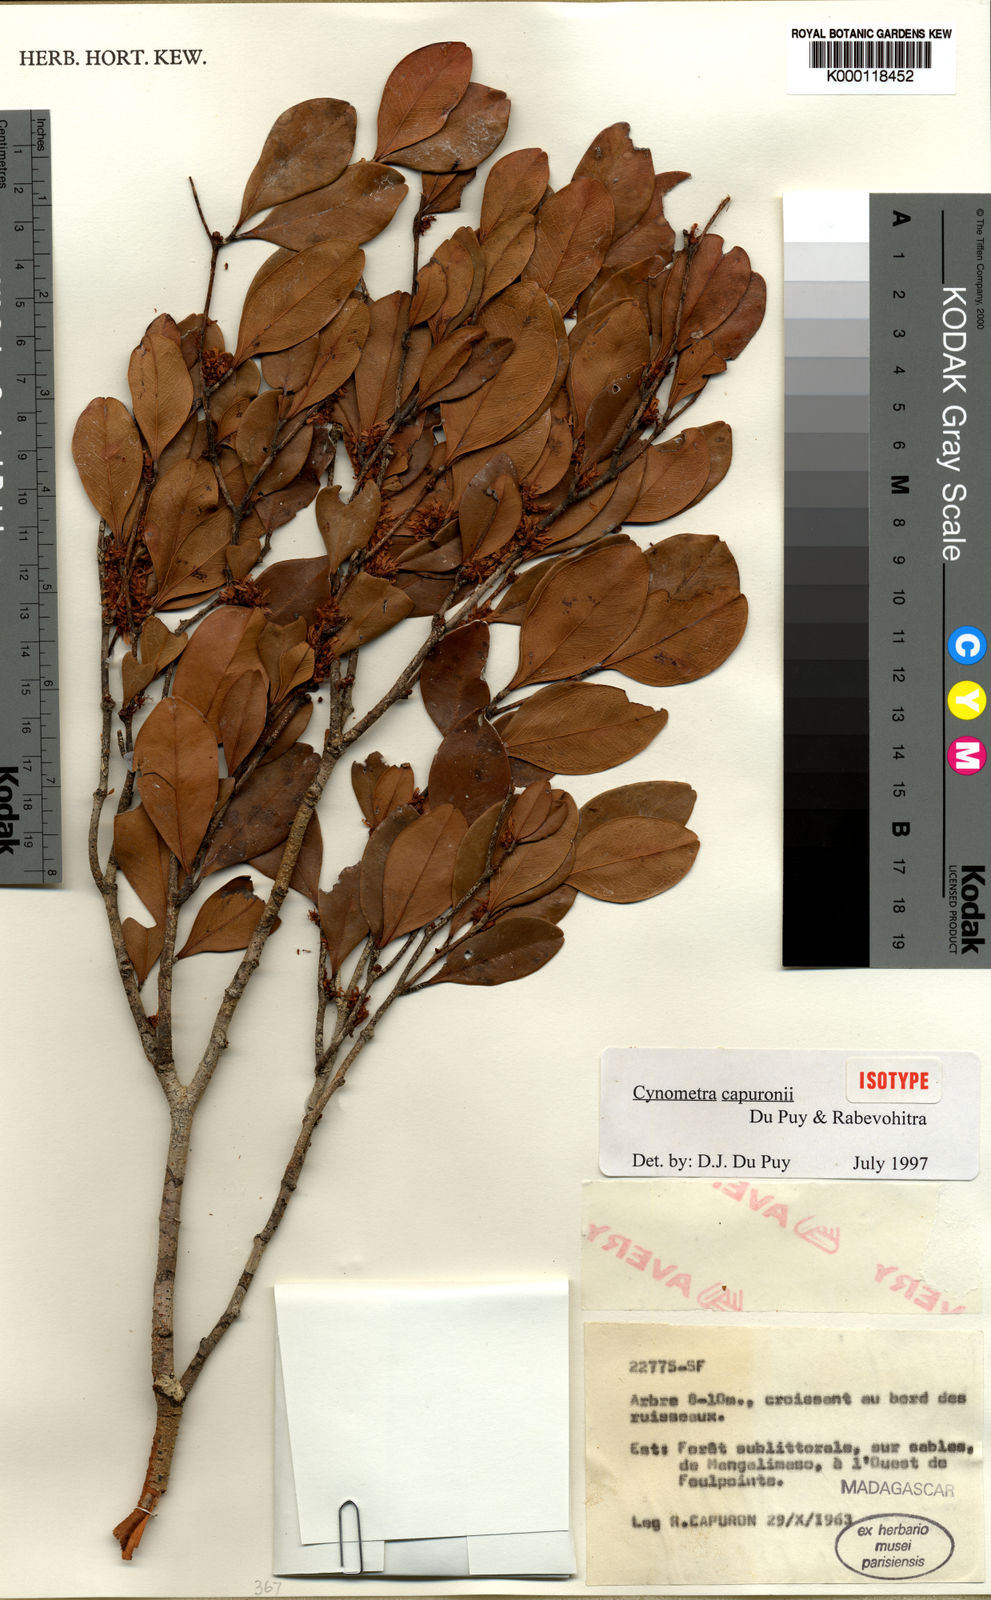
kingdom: Plantae
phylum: Tracheophyta
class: Magnoliopsida
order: Fabales
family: Fabaceae
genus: Cynometra
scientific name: Cynometra capuronii
